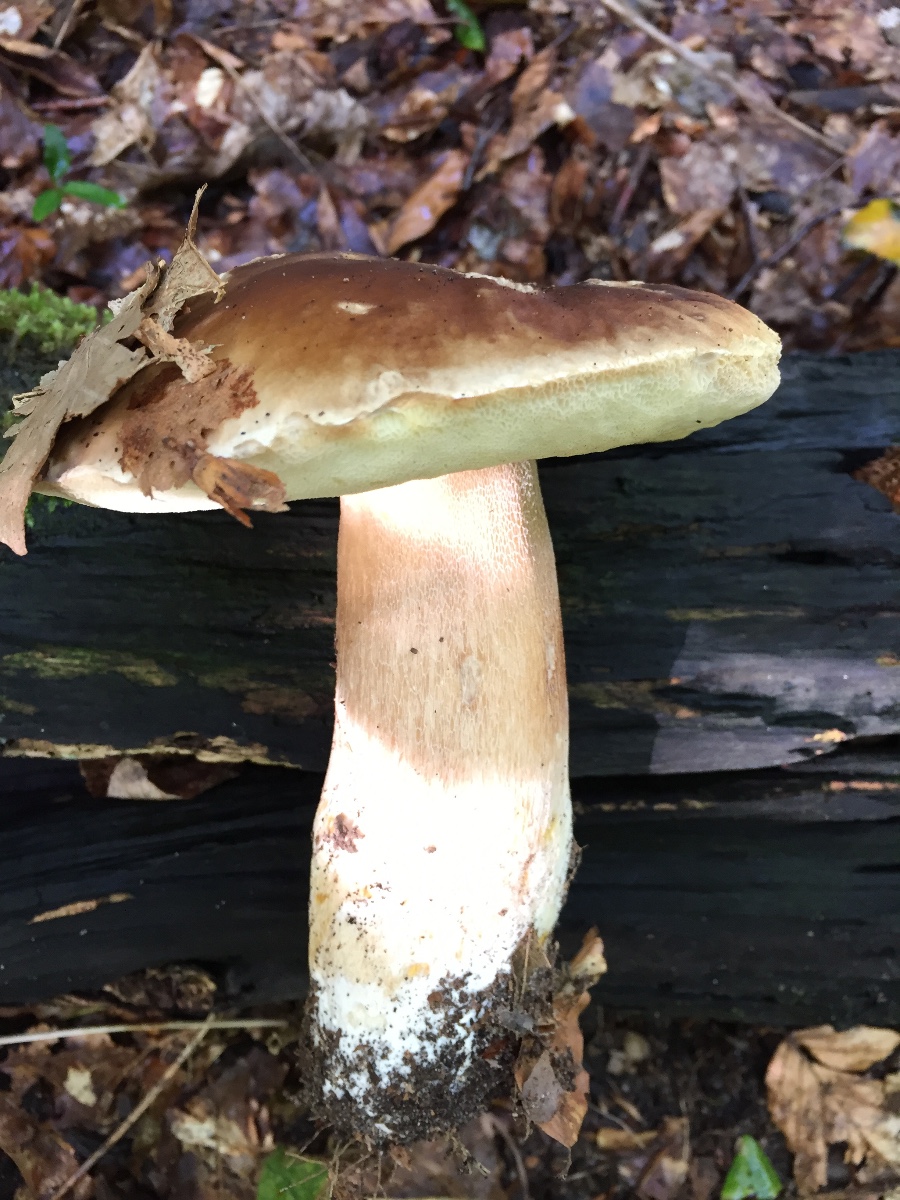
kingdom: Fungi
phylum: Basidiomycota
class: Agaricomycetes
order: Boletales
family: Boletaceae
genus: Boletus
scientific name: Boletus edulis
